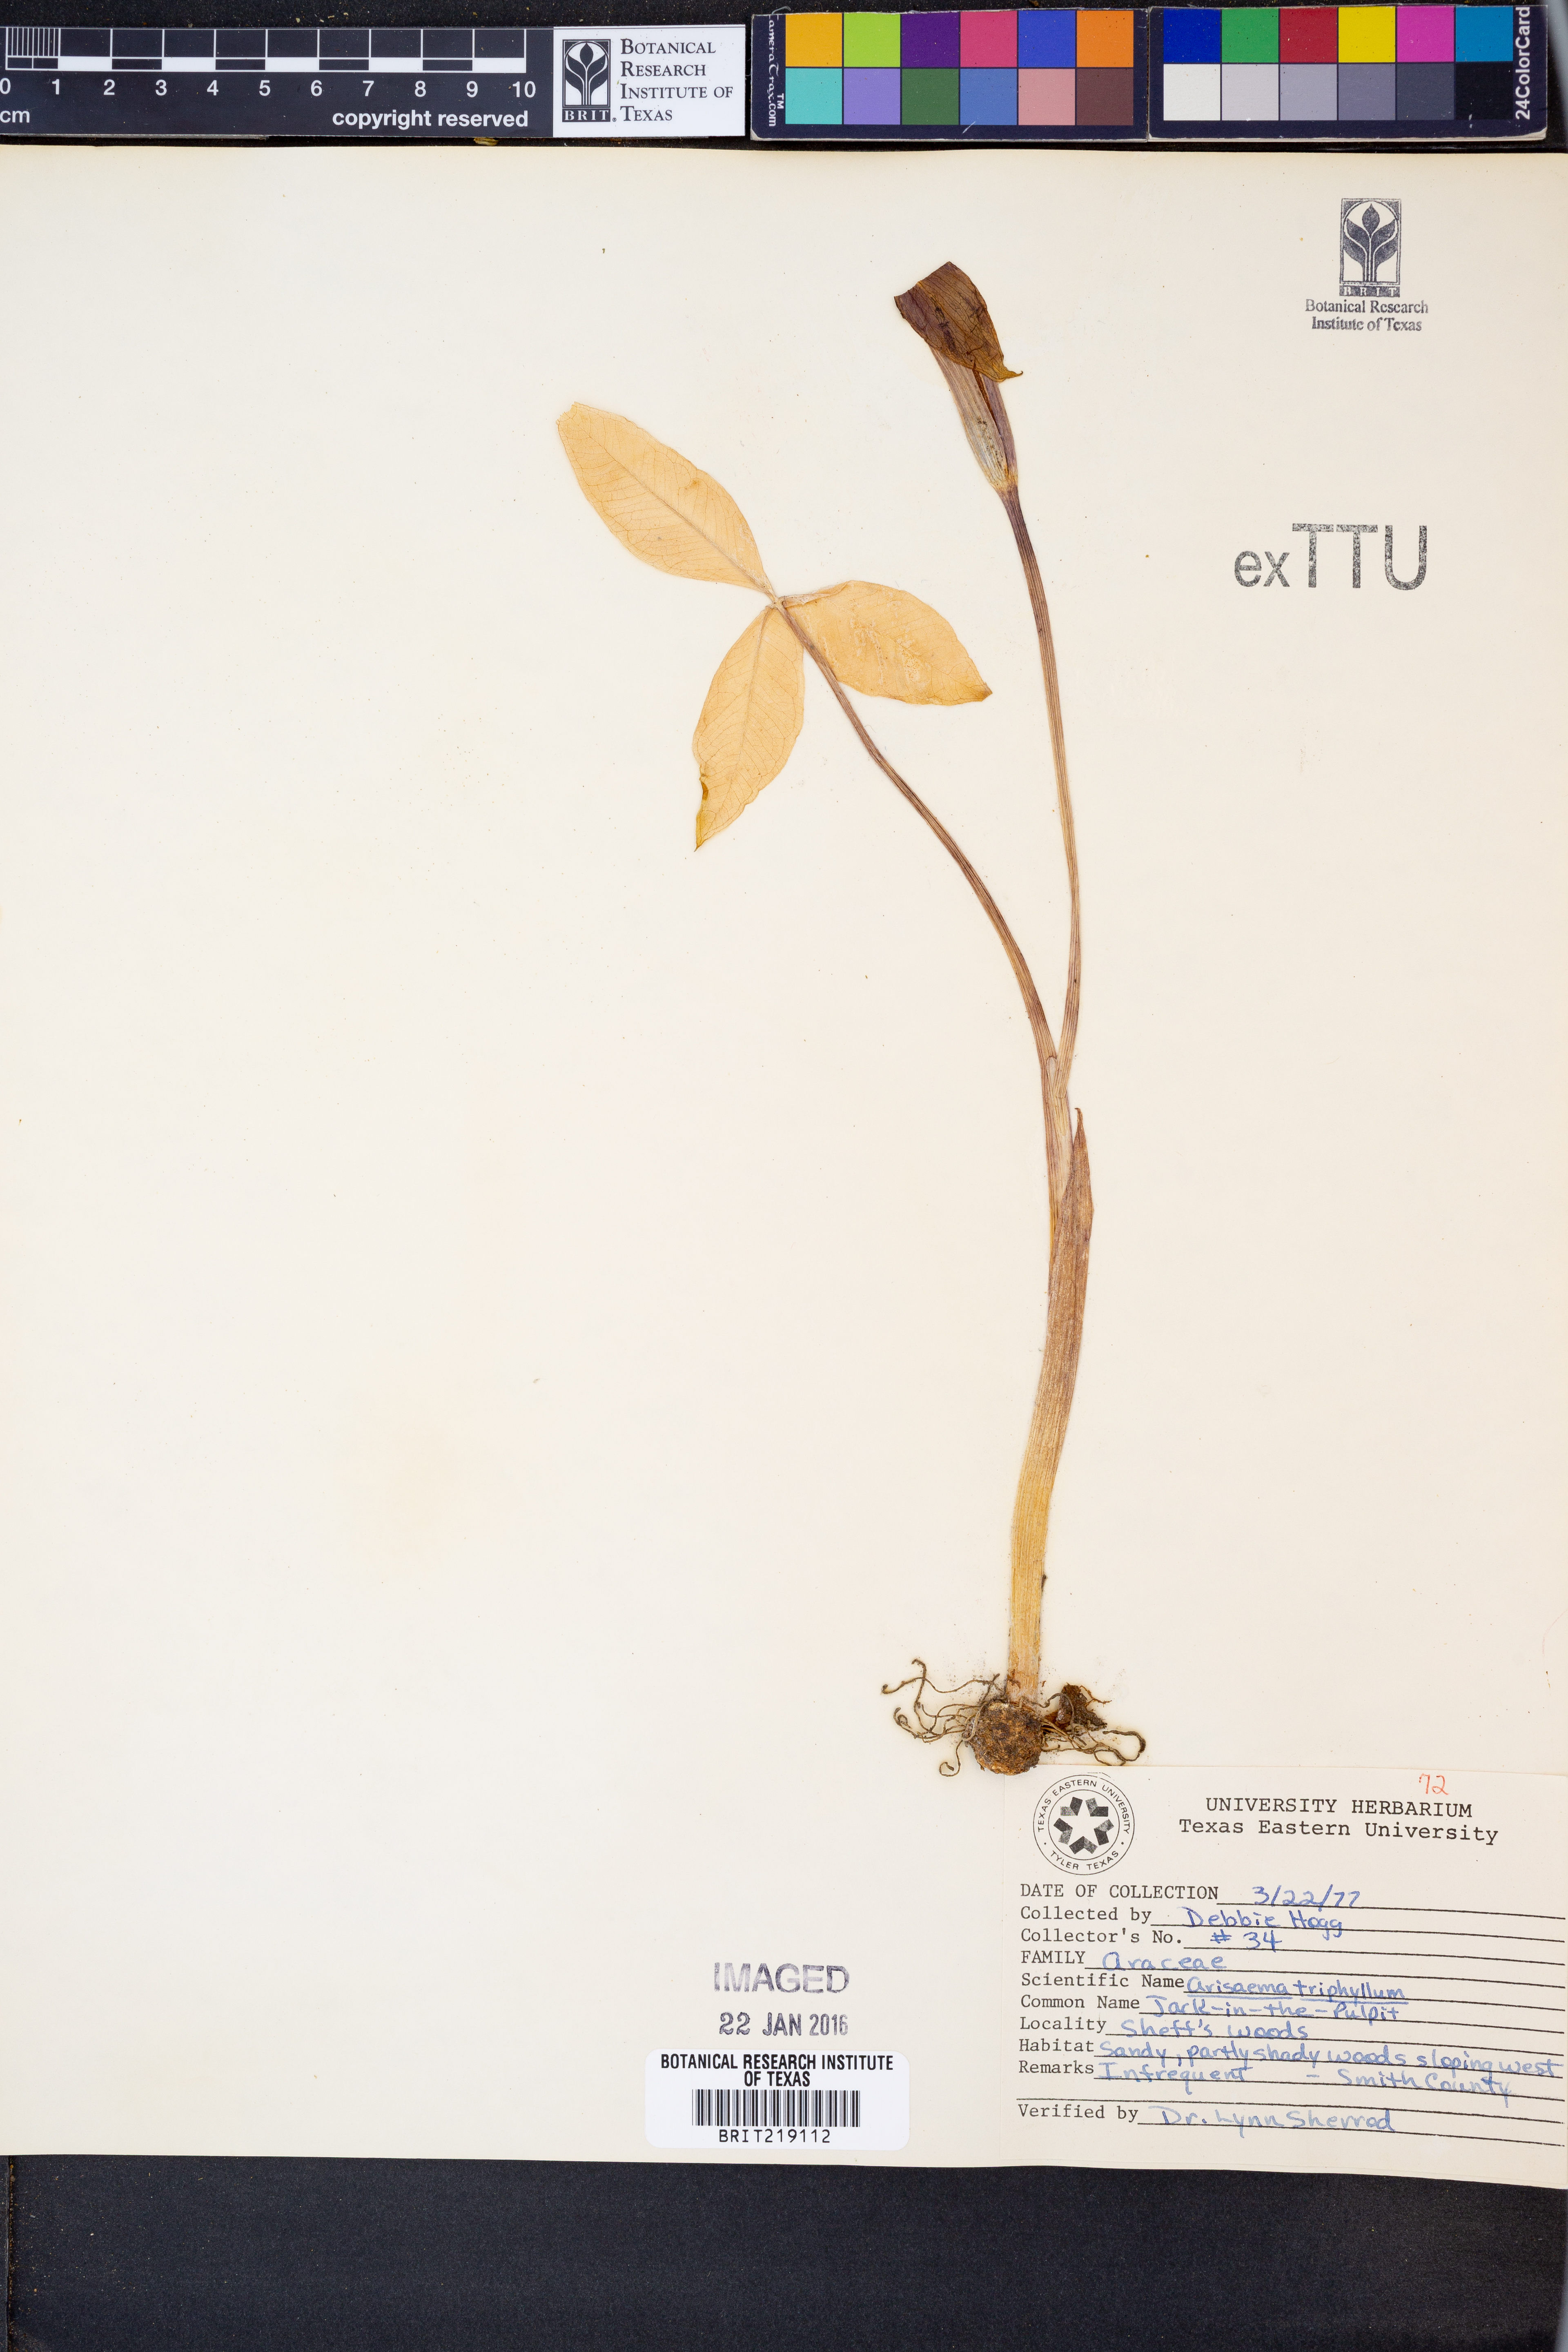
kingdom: Plantae
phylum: Tracheophyta
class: Liliopsida
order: Alismatales
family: Araceae
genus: Arisaema
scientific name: Arisaema triphyllum
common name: Jack-in-the-pulpit
